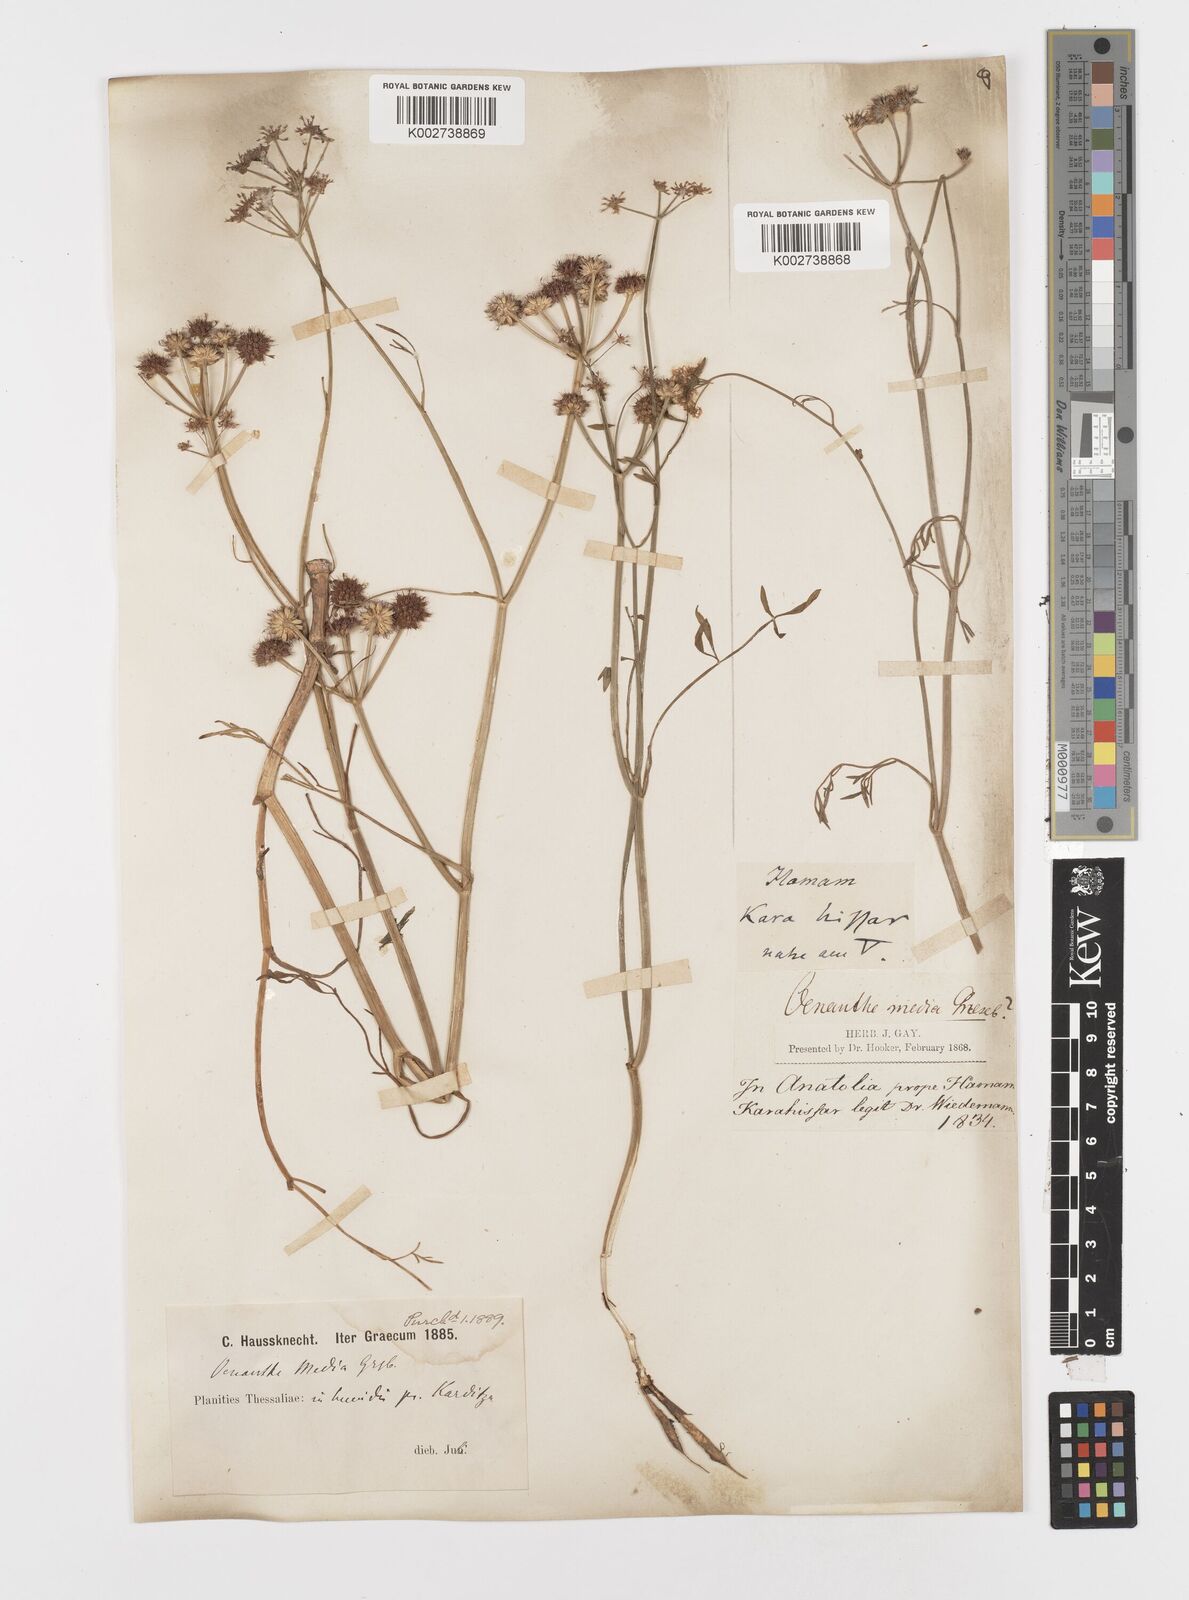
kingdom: Plantae
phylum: Tracheophyta
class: Magnoliopsida
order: Apiales
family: Apiaceae
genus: Oenanthe
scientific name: Oenanthe silaifolia
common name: Narrow-leaved water-dropwort
